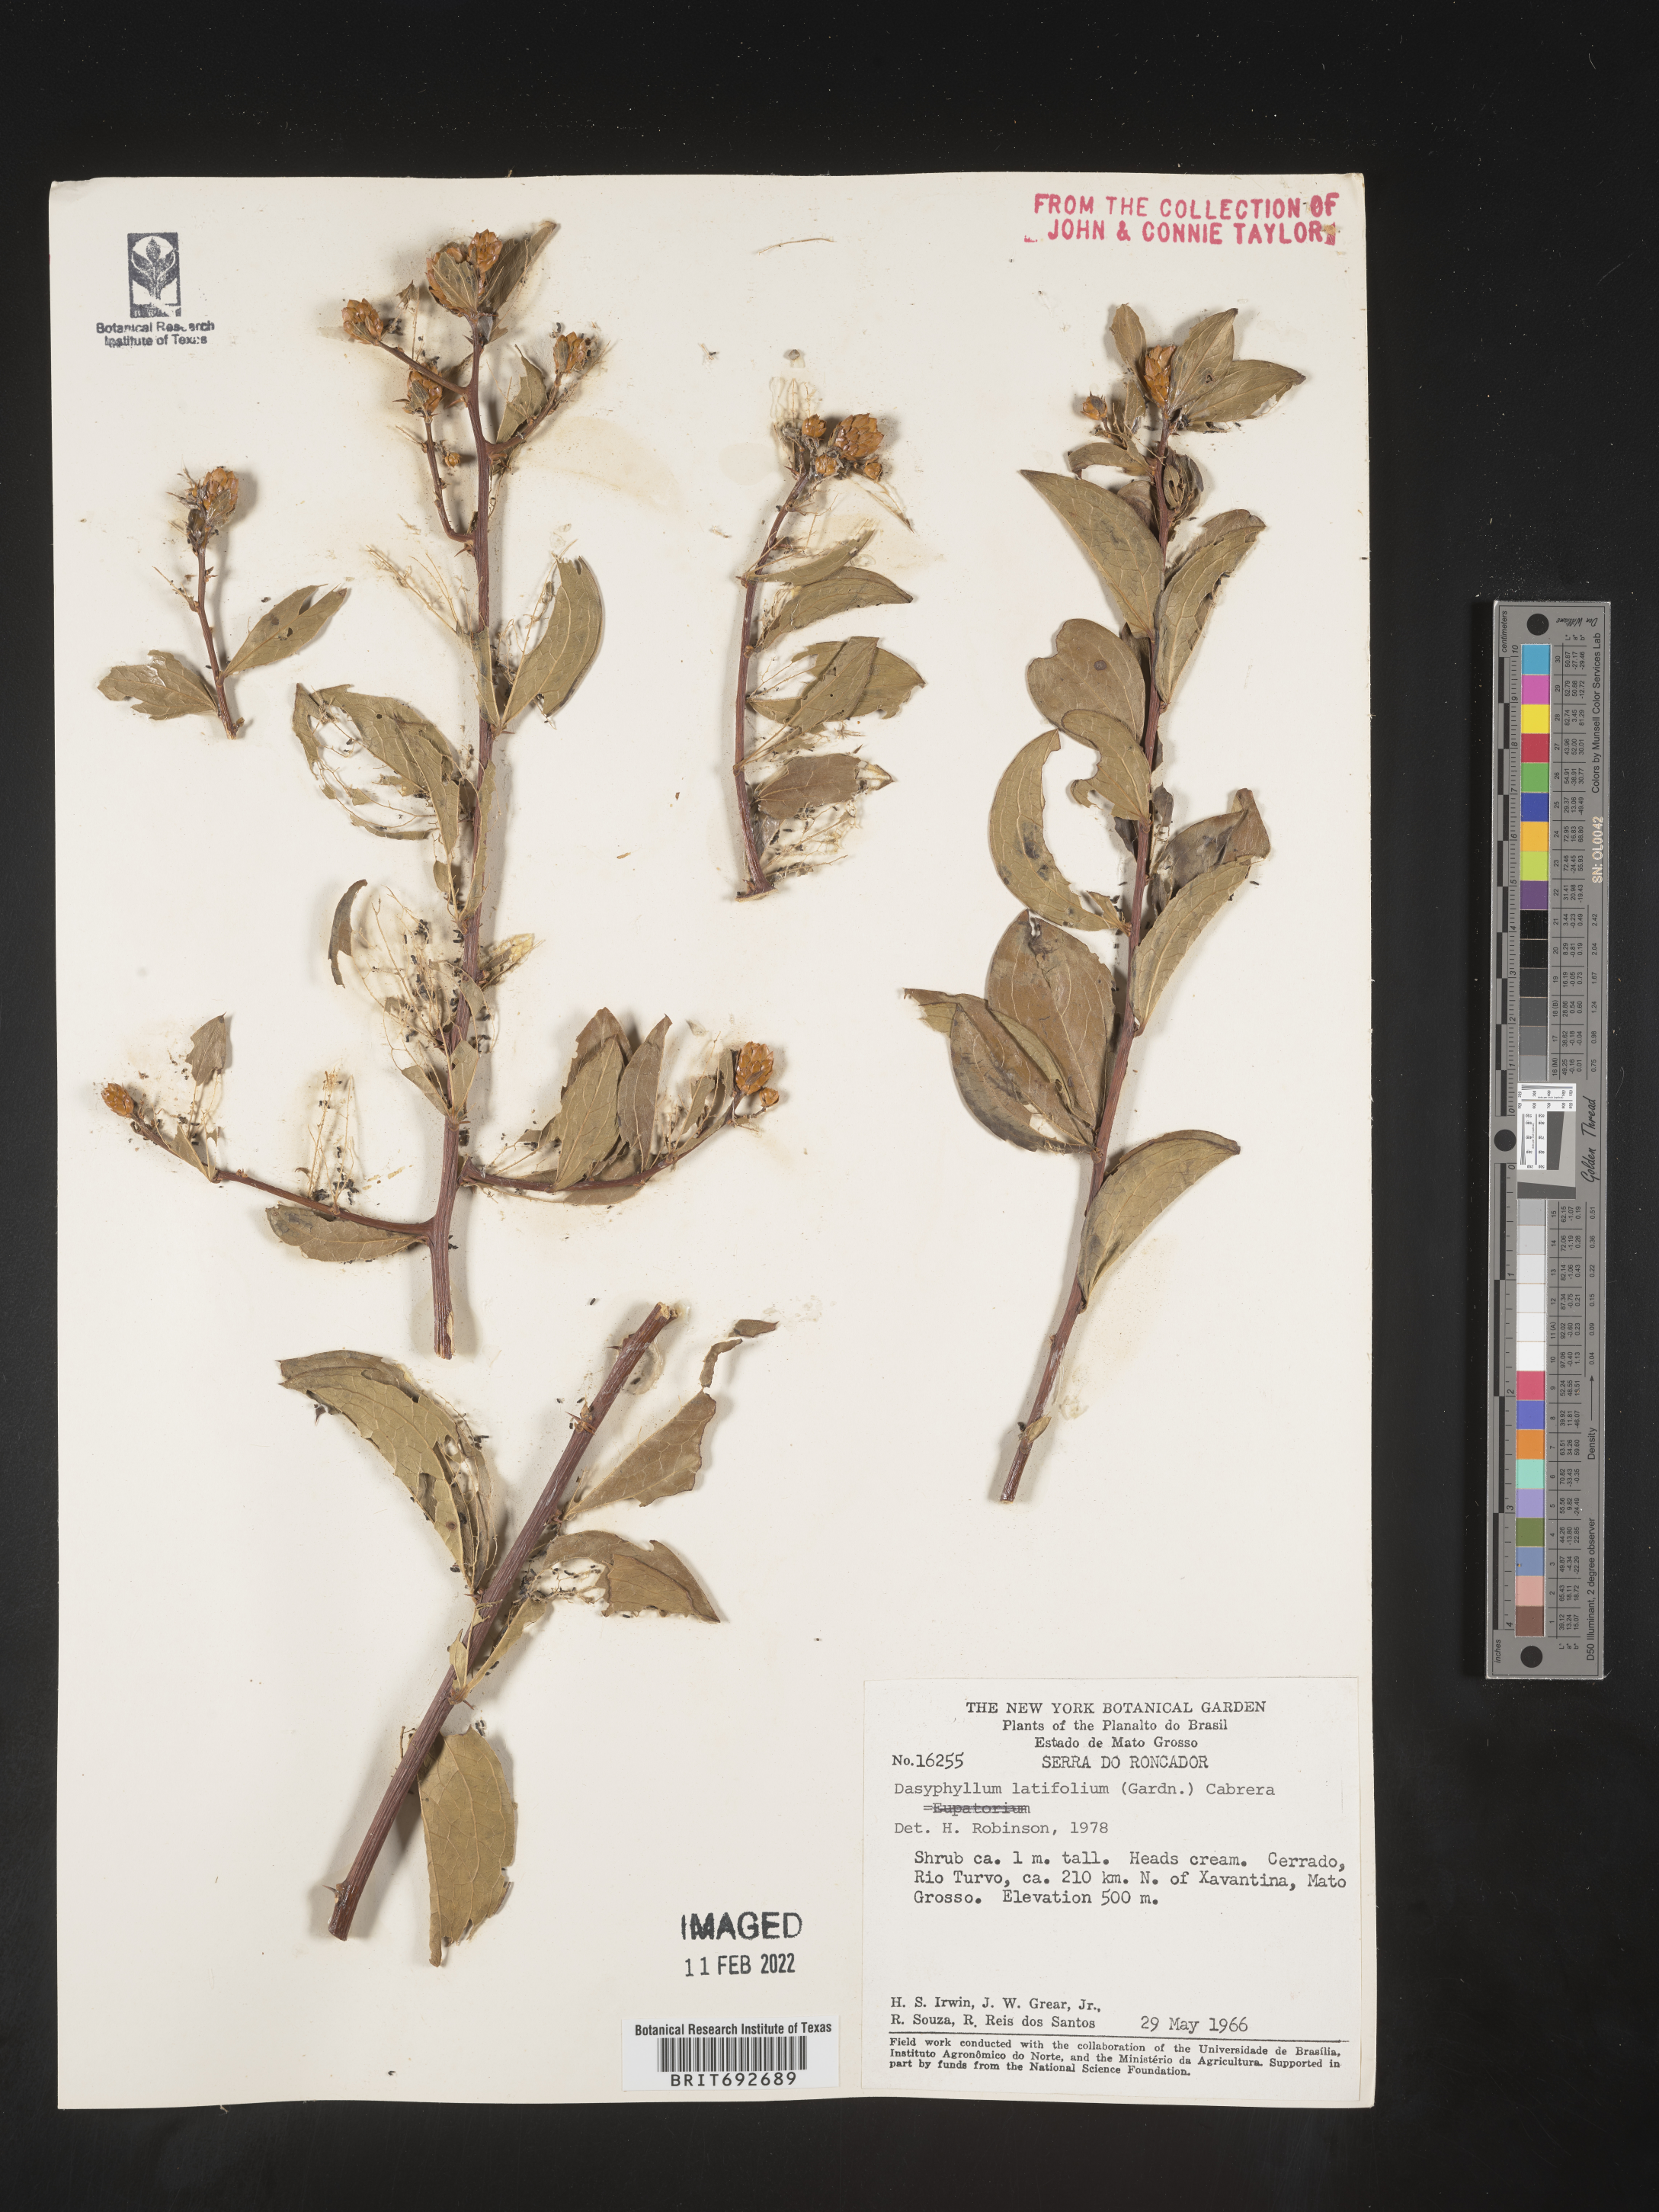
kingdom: Plantae
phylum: Tracheophyta
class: Magnoliopsida
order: Asterales
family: Asteraceae
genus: Dasyphyllum
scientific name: Dasyphyllum
